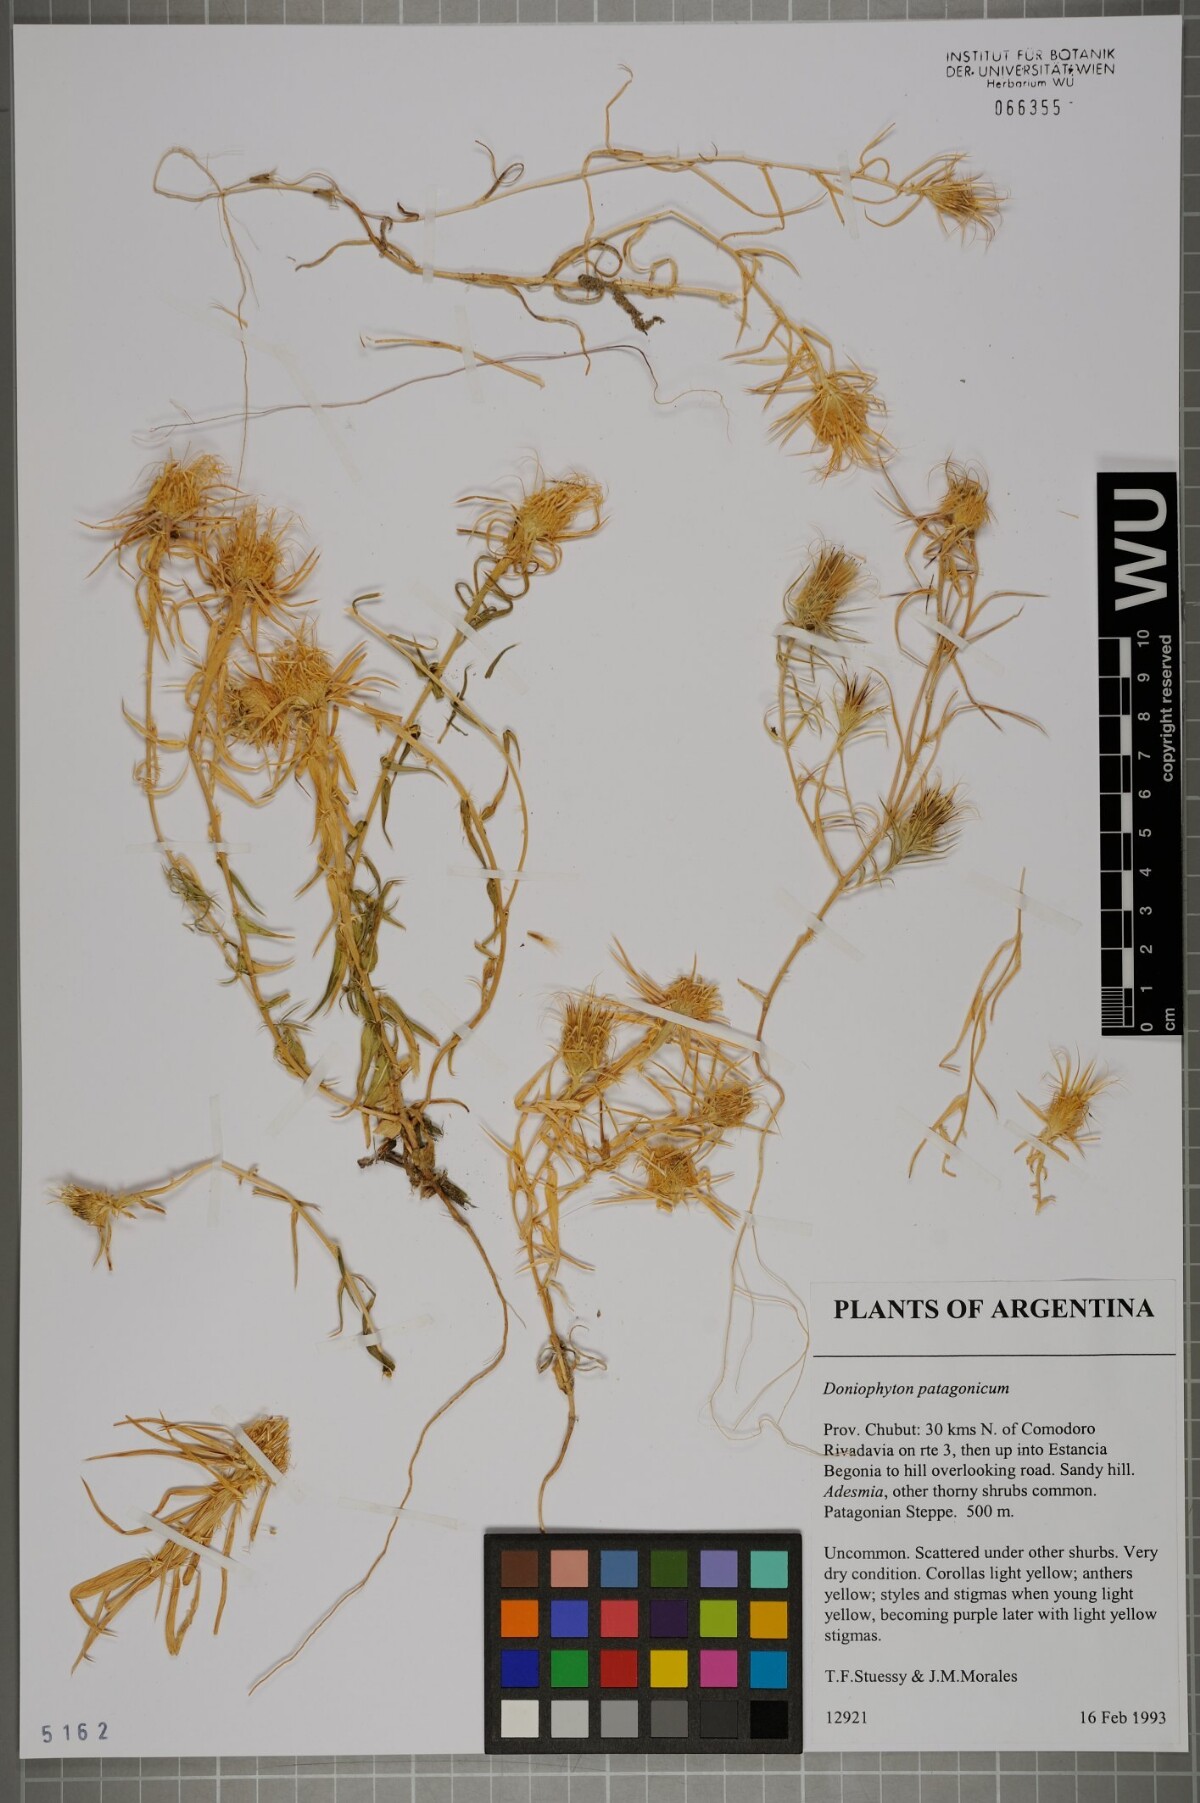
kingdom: Plantae
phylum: Tracheophyta
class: Magnoliopsida
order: Asterales
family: Asteraceae
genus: Doniophyton
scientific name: Doniophyton anomalum
